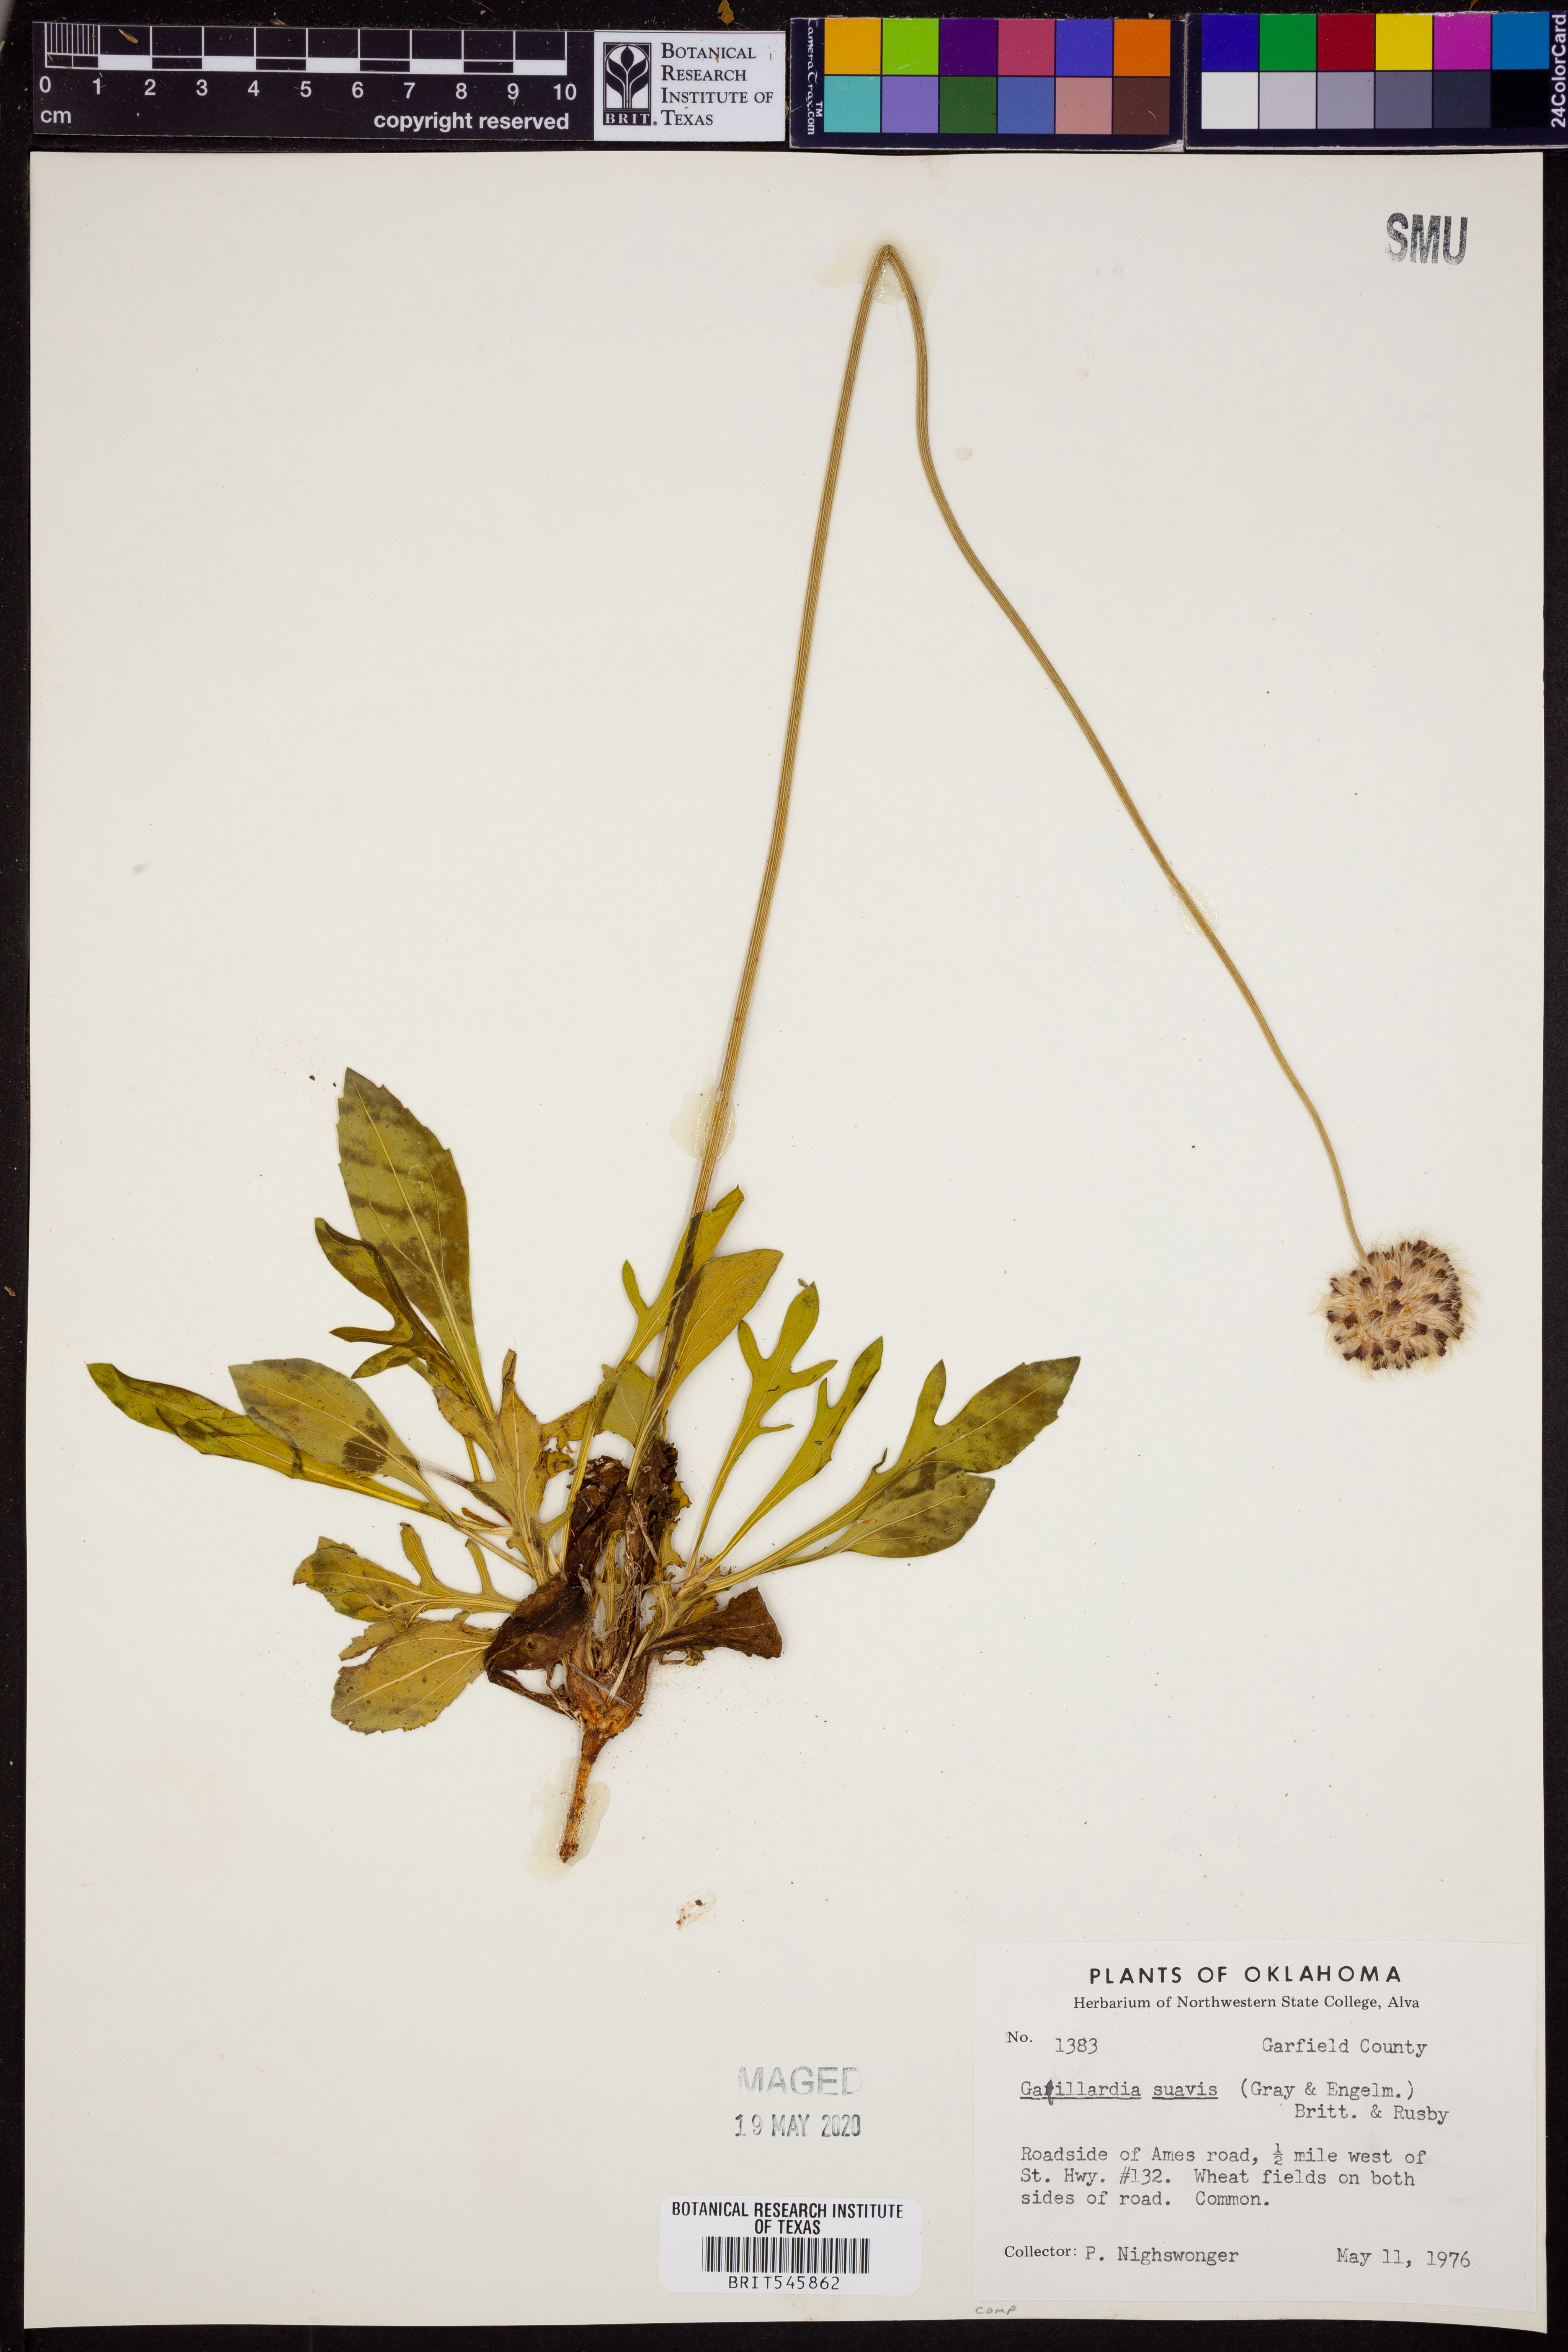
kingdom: Plantae
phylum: Tracheophyta
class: Magnoliopsida
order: Asterales
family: Asteraceae
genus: Gaillardia
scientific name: Gaillardia suavis
